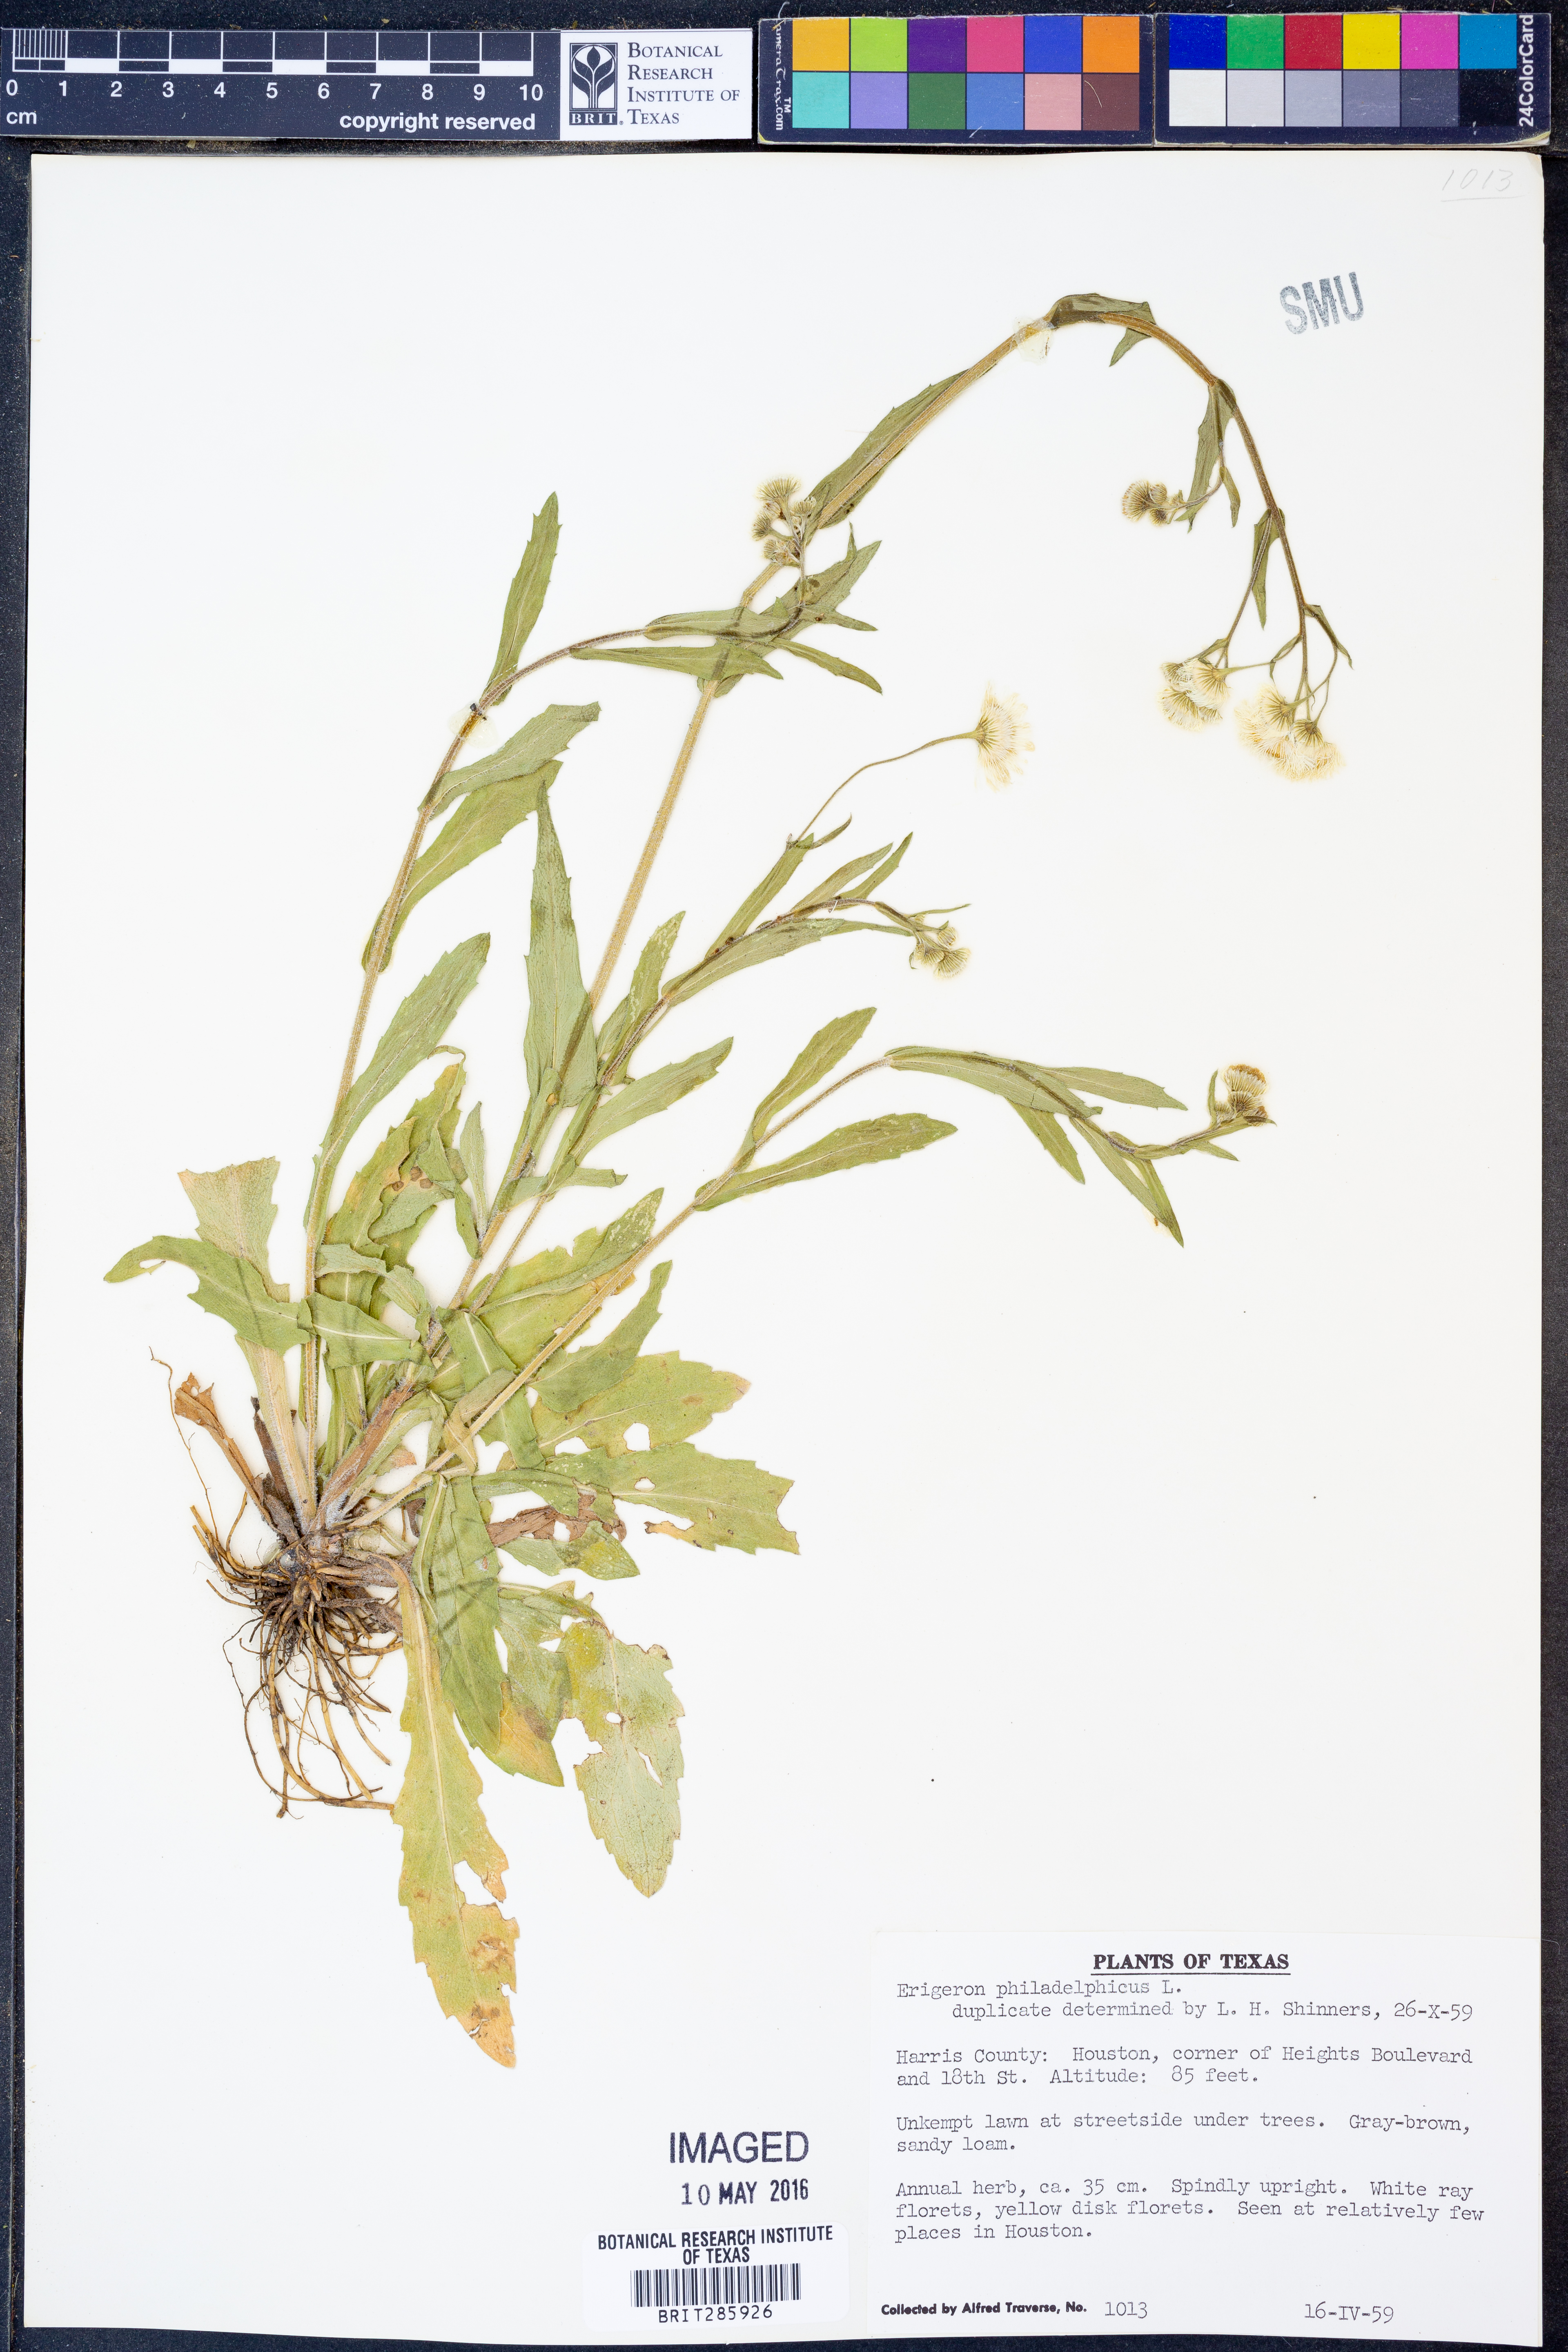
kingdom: Plantae
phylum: Tracheophyta
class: Magnoliopsida
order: Asterales
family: Asteraceae
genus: Erigeron
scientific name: Erigeron philadelphicus
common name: Robin's-plantain
